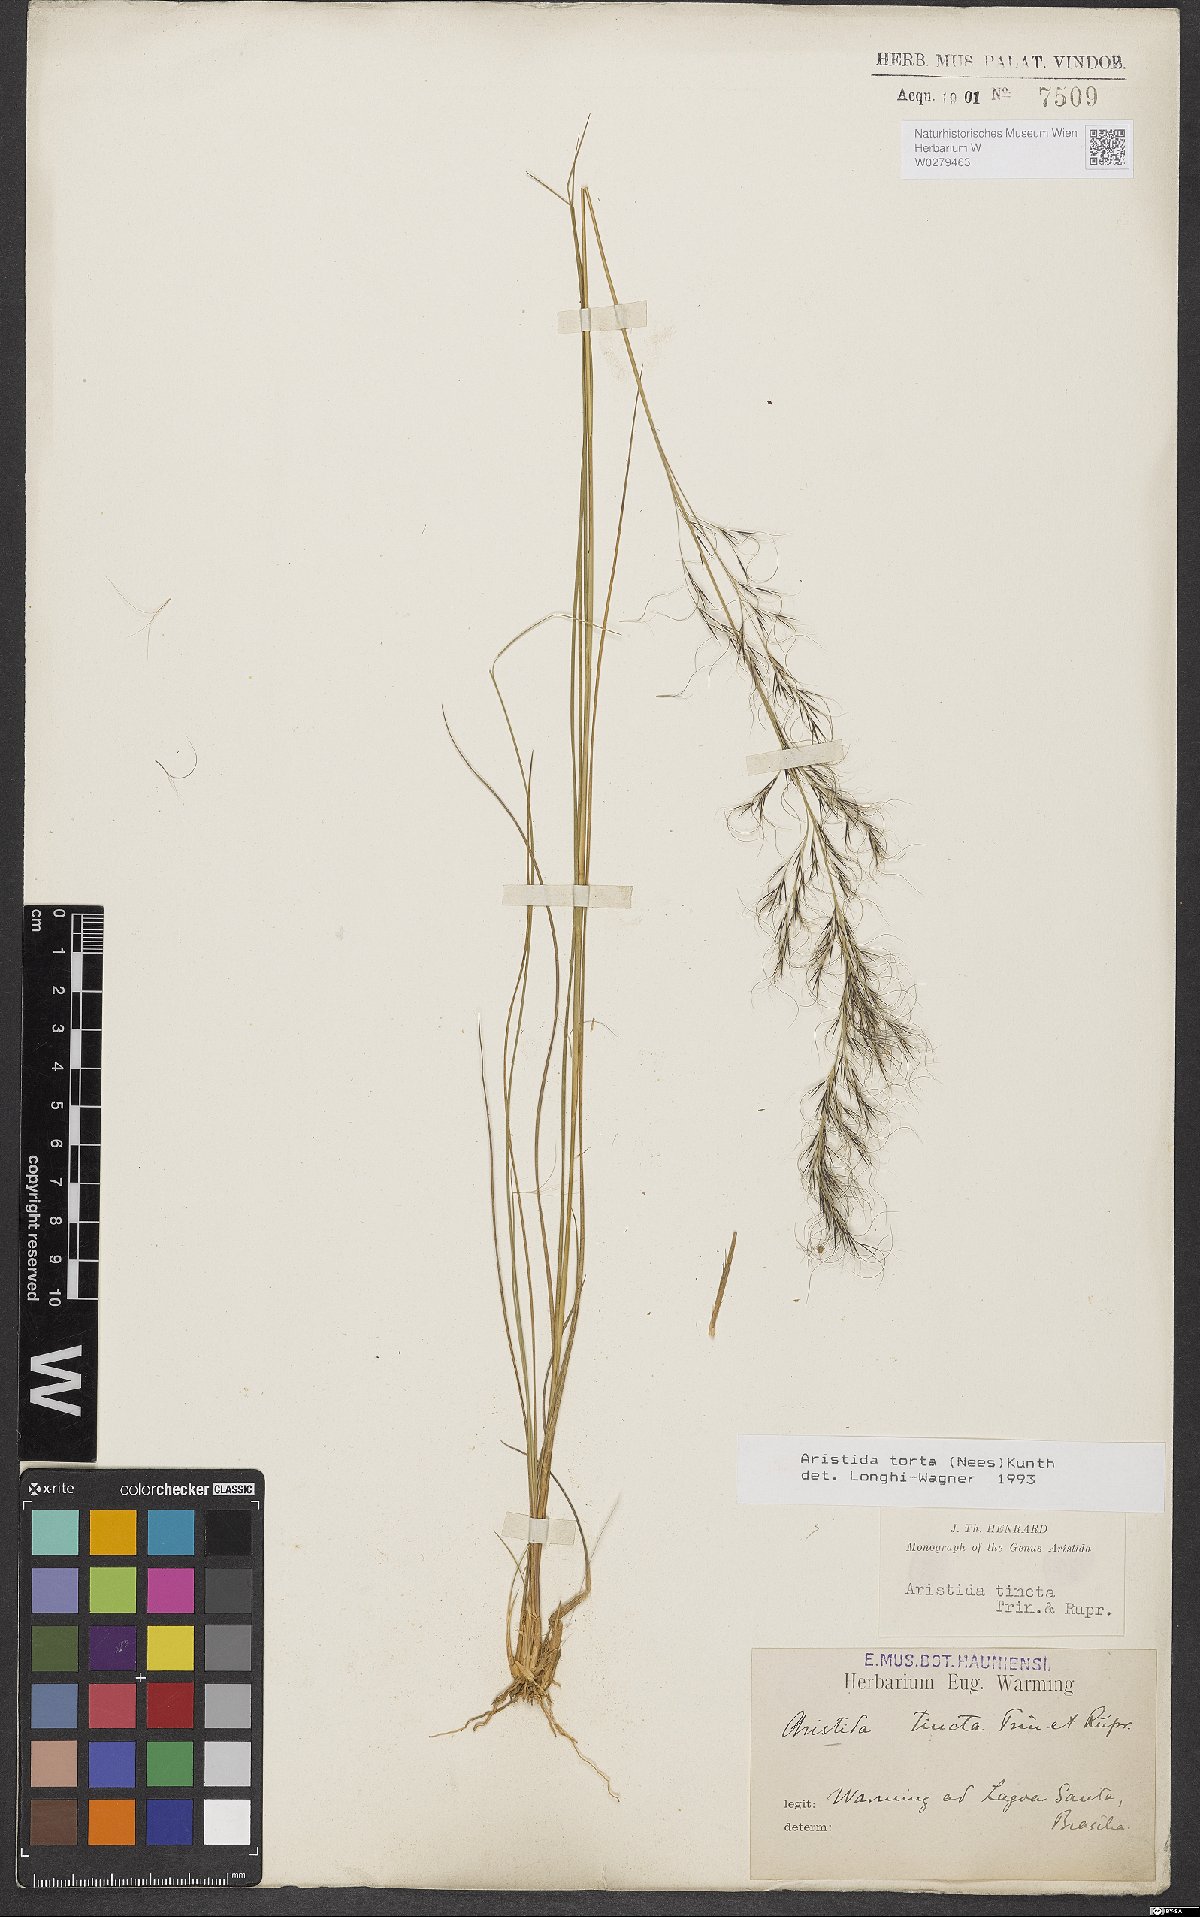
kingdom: Plantae
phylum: Tracheophyta
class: Liliopsida
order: Poales
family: Poaceae
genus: Aristida
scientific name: Aristida torta
